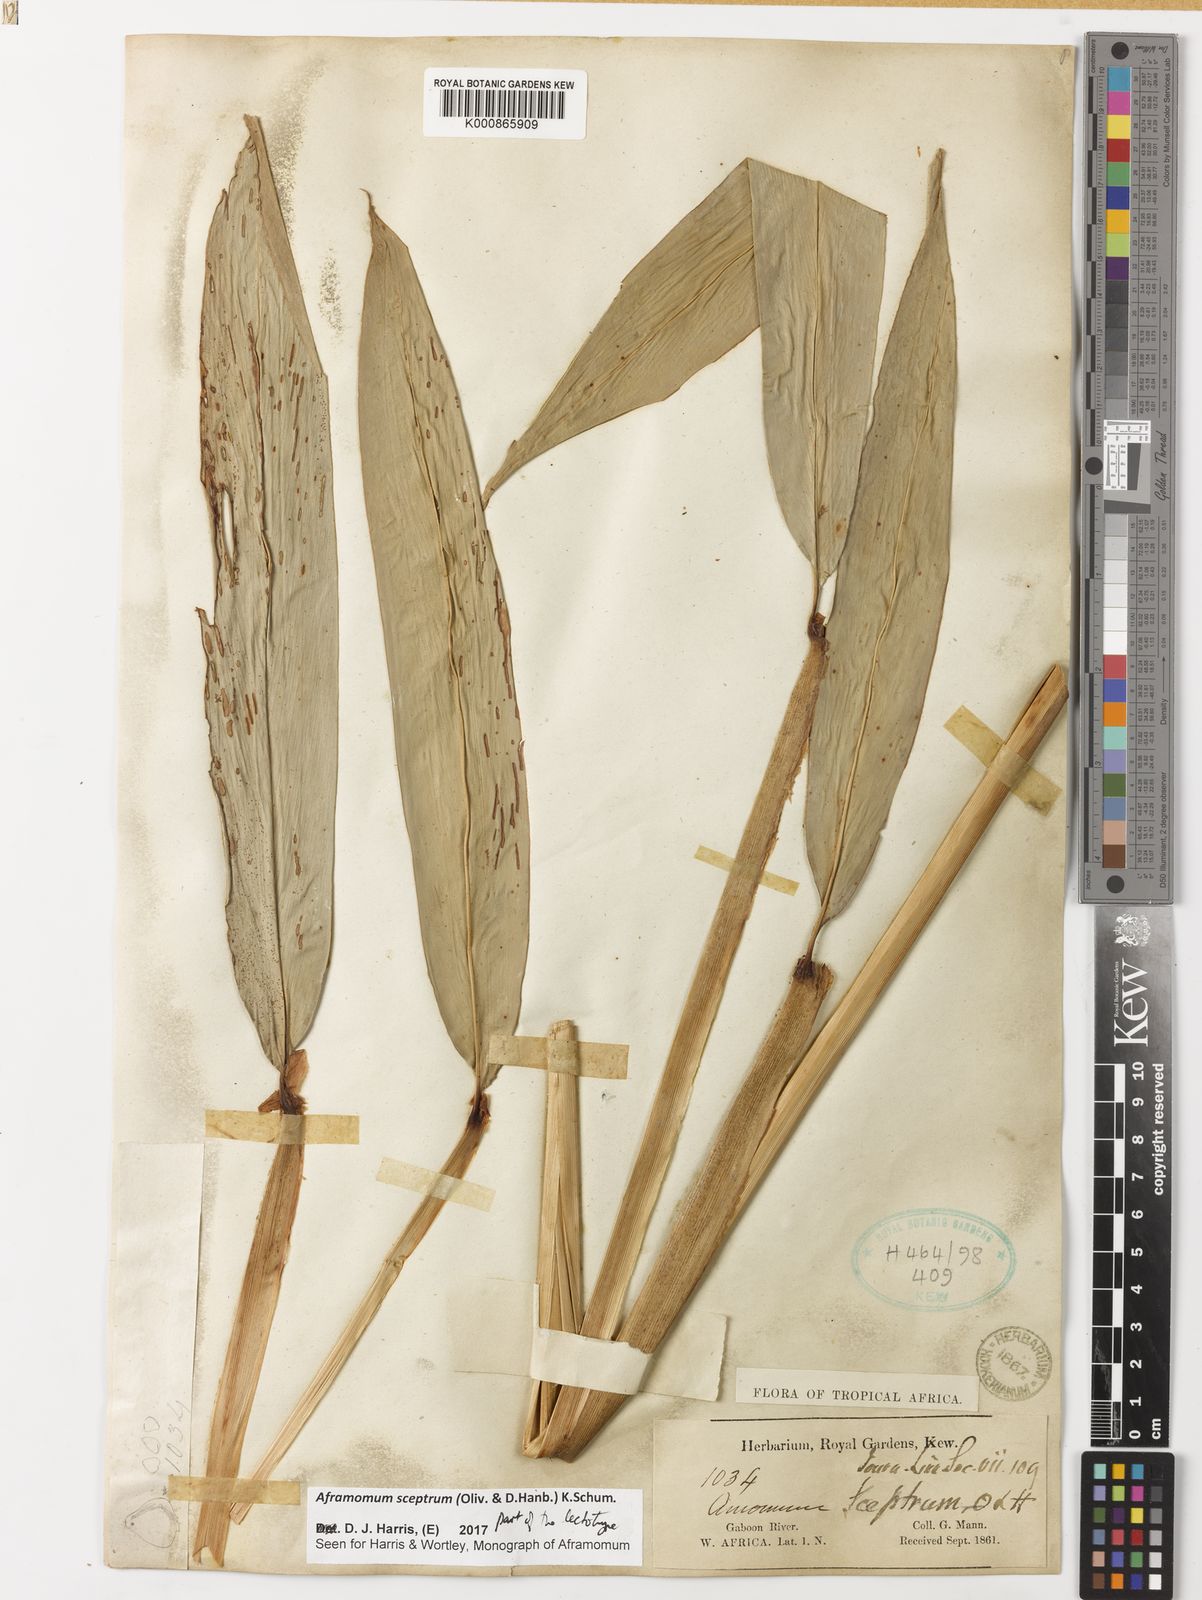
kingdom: Plantae
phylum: Tracheophyta
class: Liliopsida
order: Zingiberales
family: Zingiberaceae
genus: Aframomum
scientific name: Aframomum cereum
